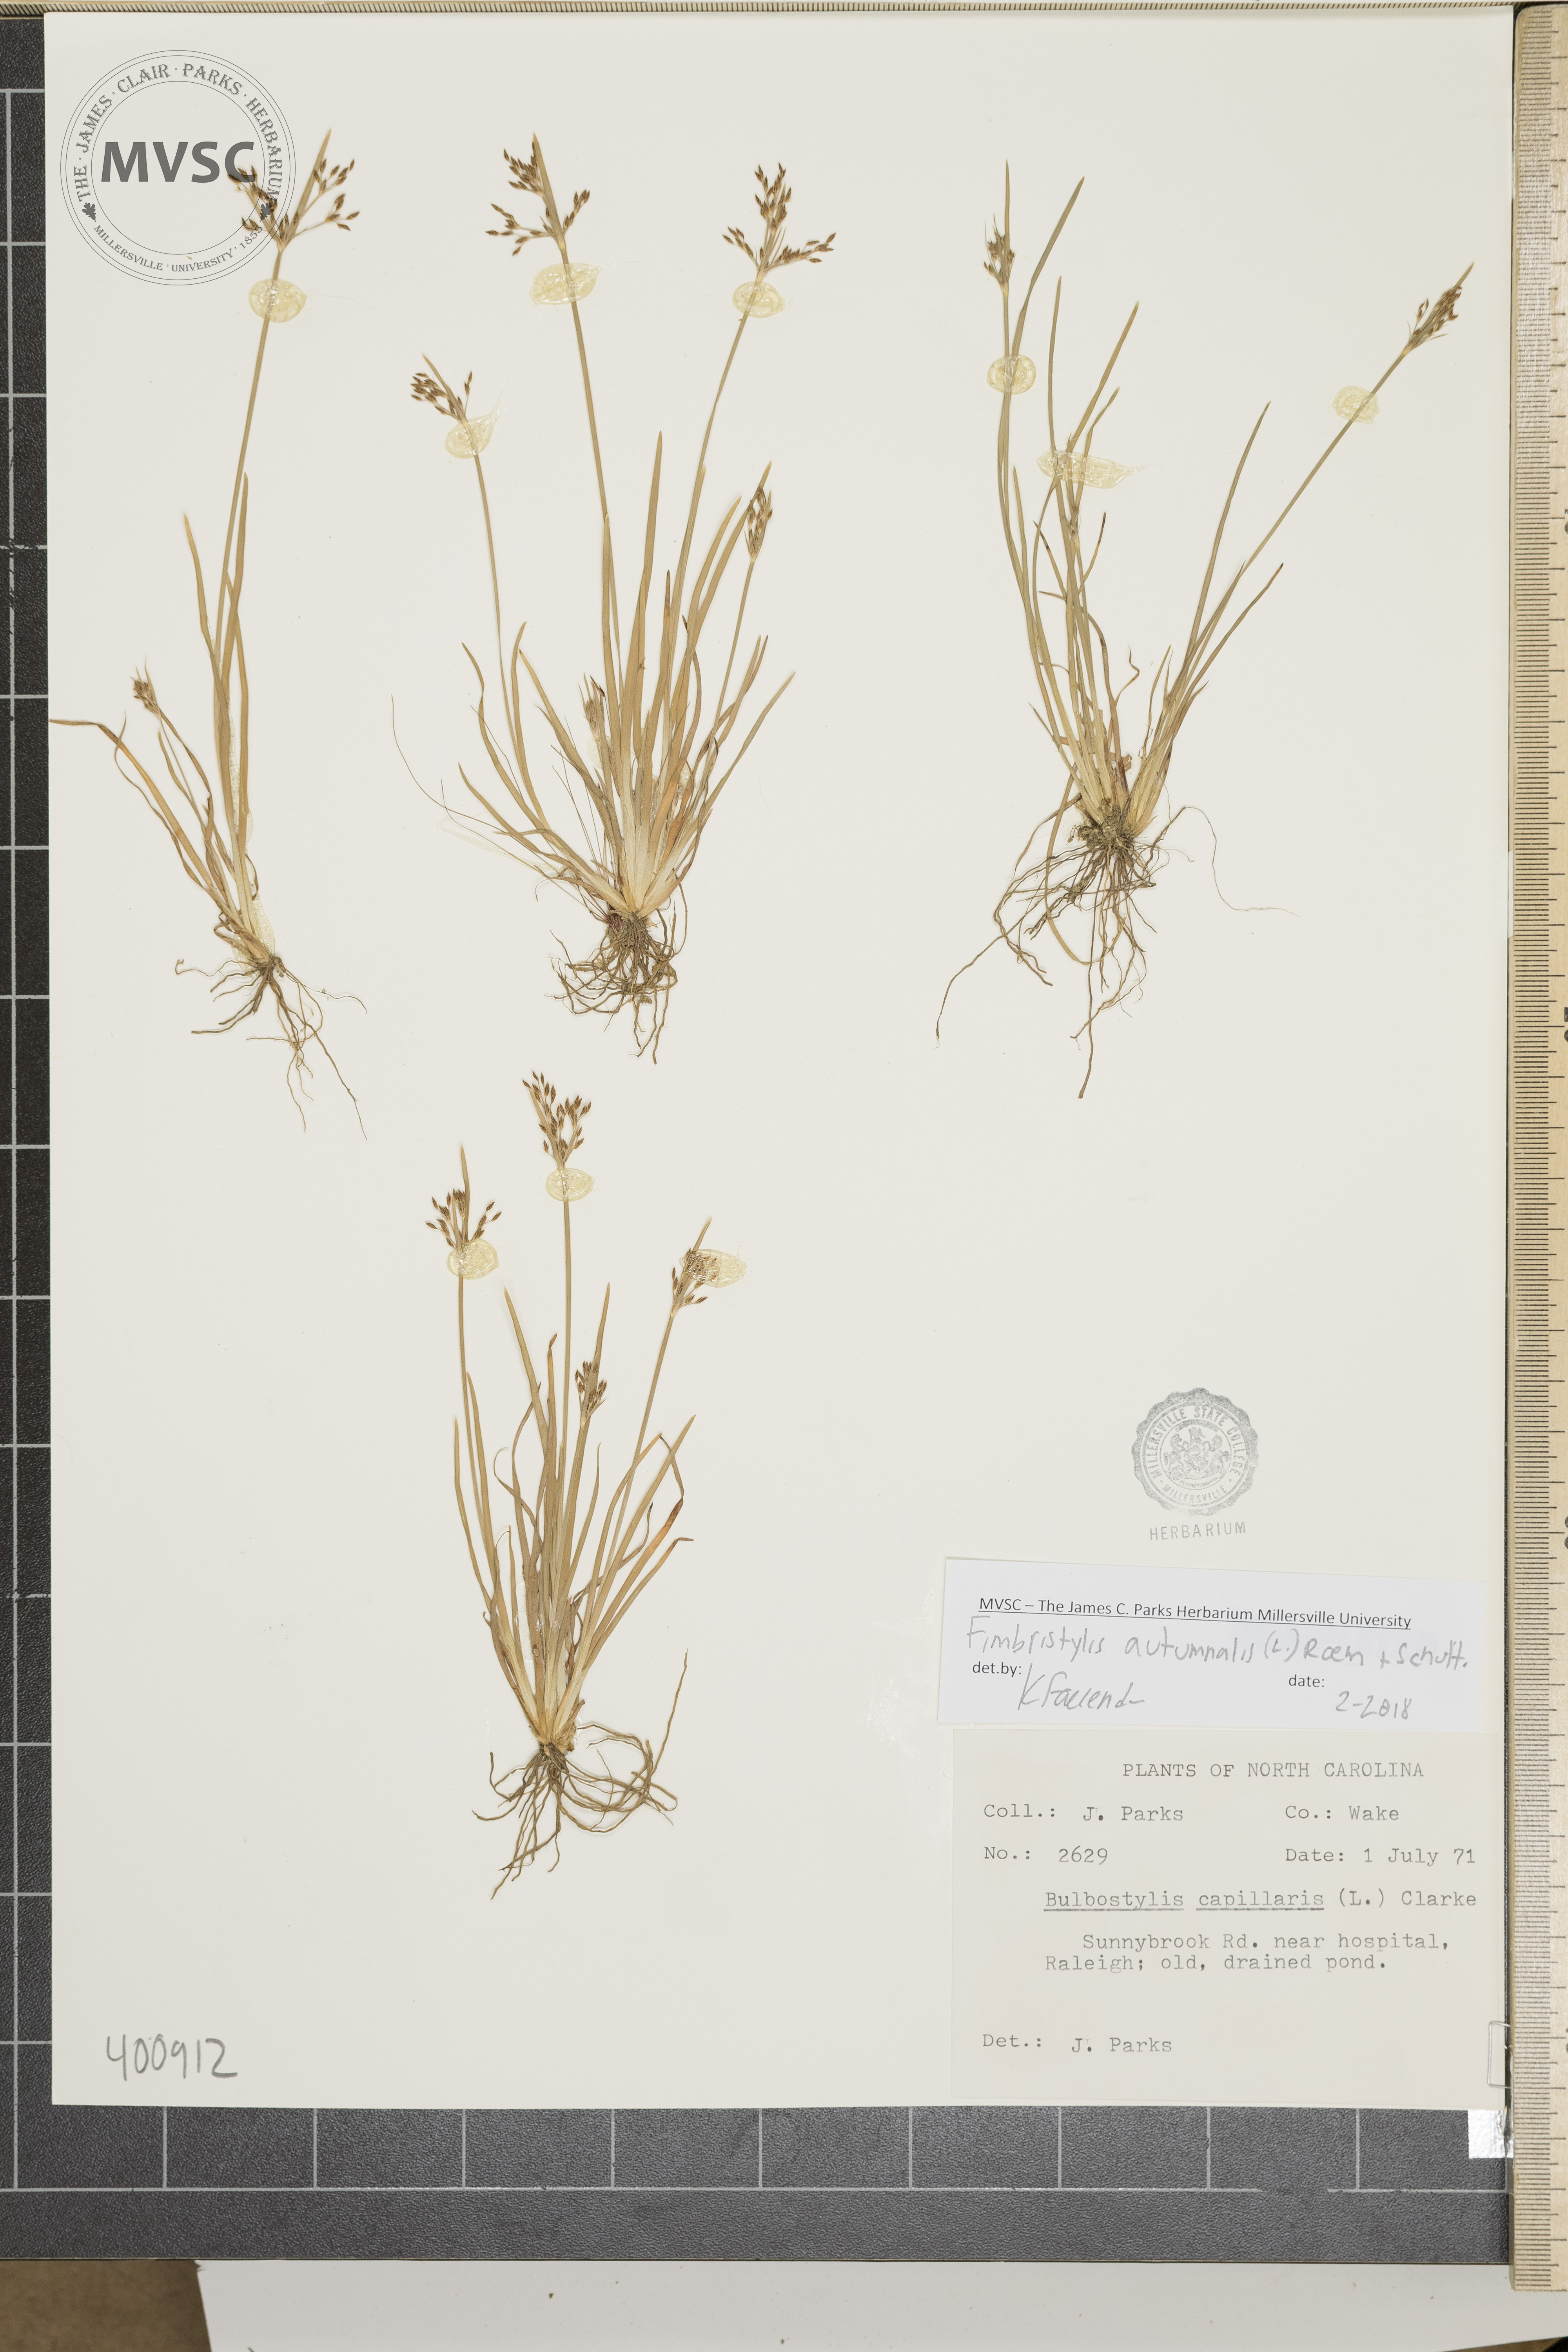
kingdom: Plantae
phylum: Tracheophyta
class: Liliopsida
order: Poales
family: Cyperaceae
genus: Fimbristylis
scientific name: Fimbristylis autumnalis
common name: Slender fimbristylis
